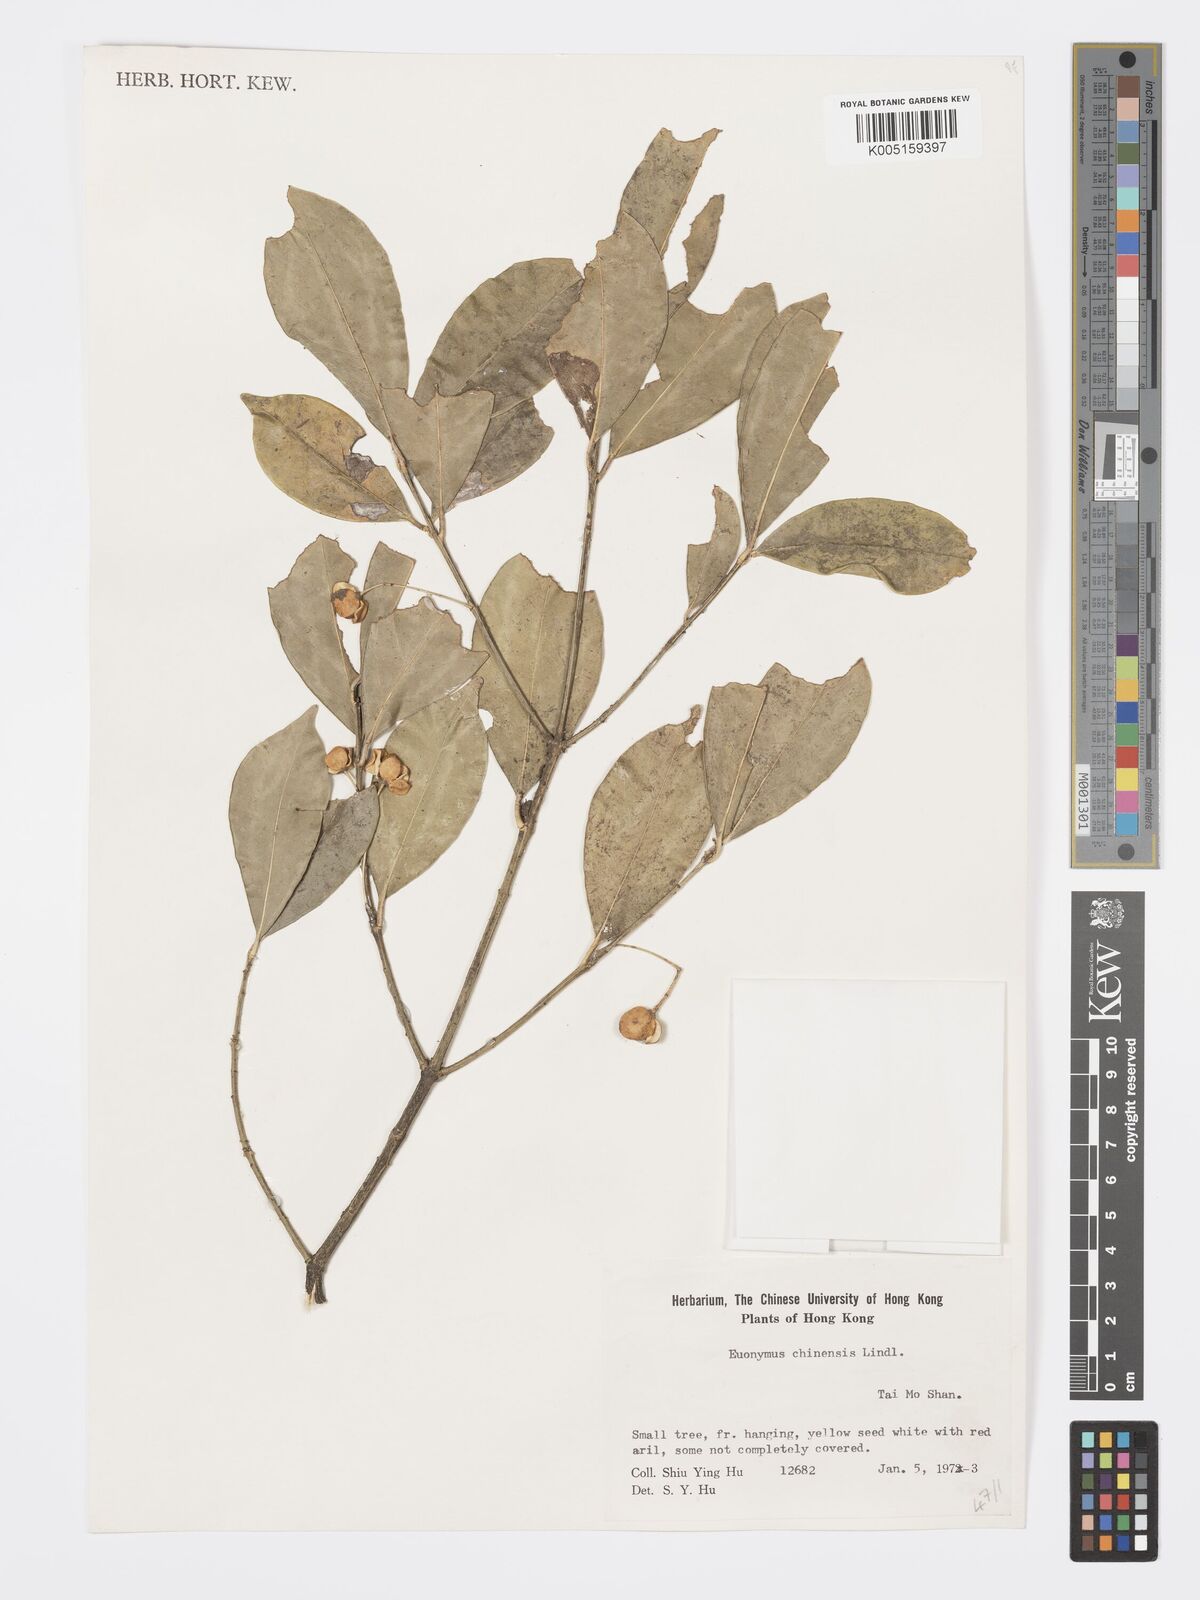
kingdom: Plantae
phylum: Tracheophyta
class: Magnoliopsida
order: Celastrales
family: Celastraceae
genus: Euonymus
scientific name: Euonymus nitidus
